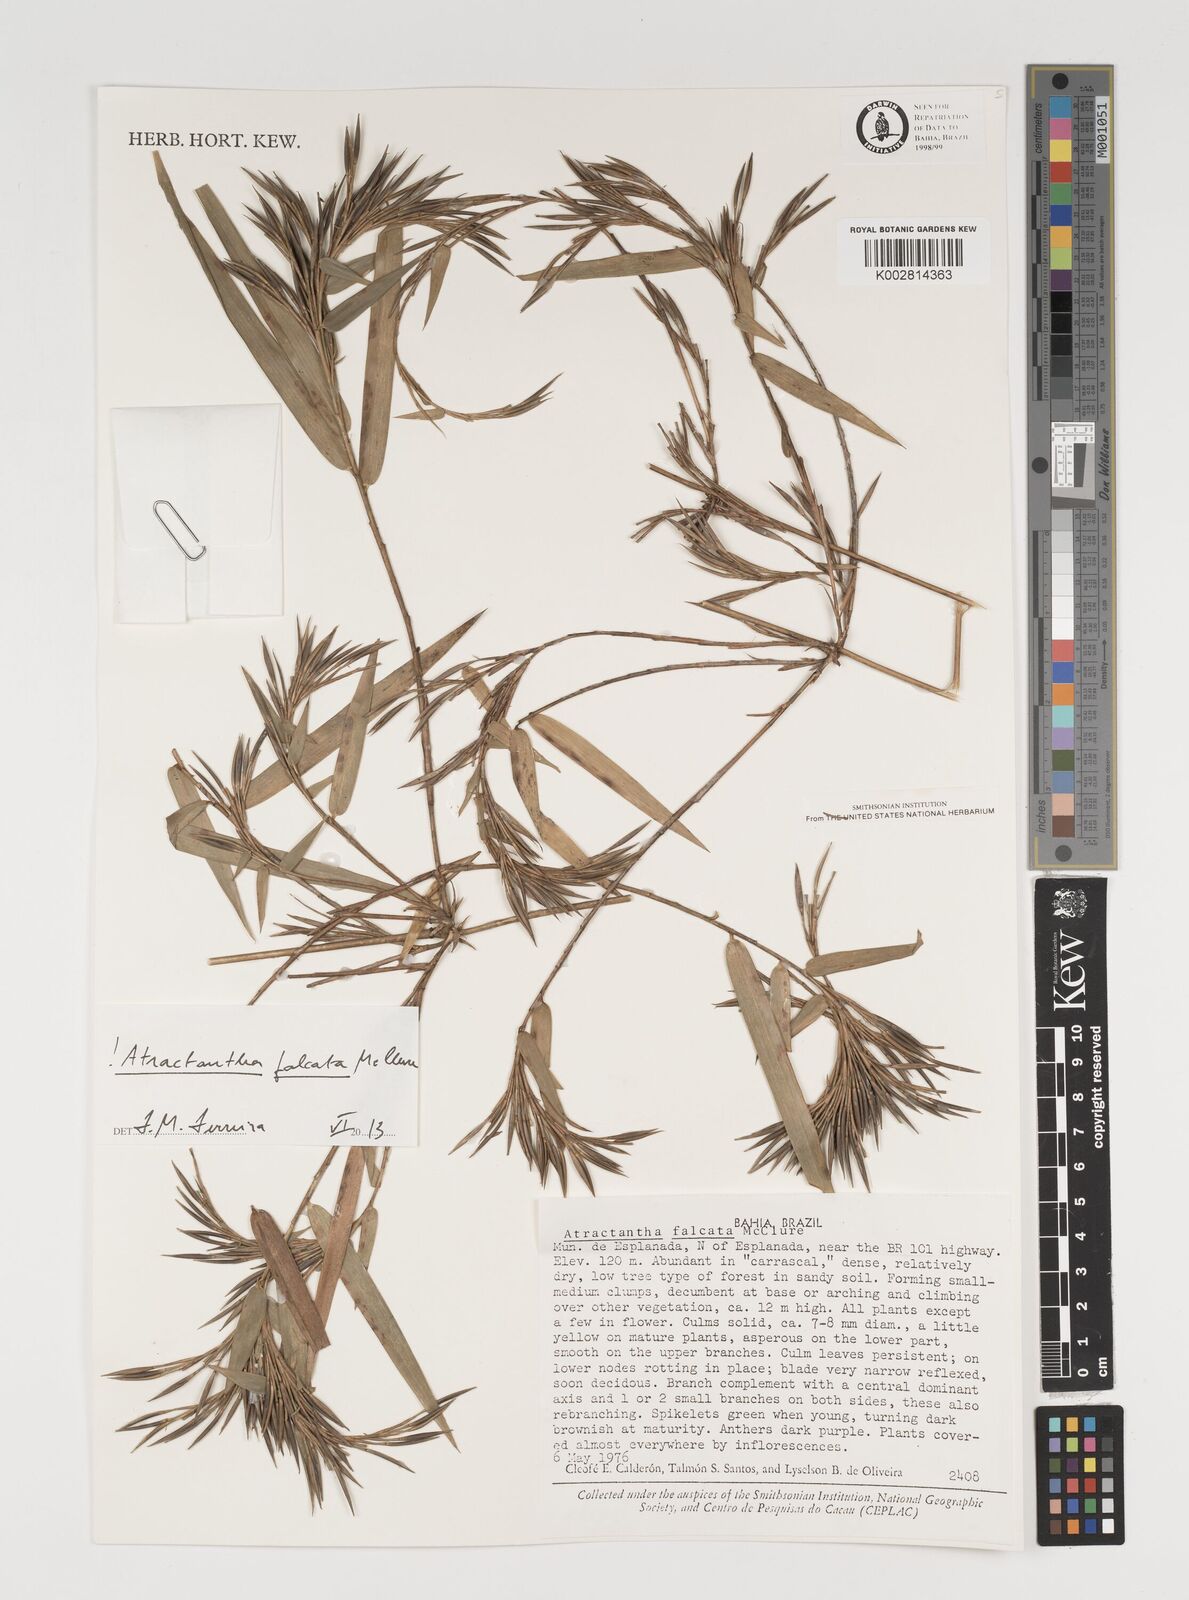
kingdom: Plantae
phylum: Tracheophyta
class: Liliopsida
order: Poales
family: Poaceae
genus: Atractantha
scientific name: Atractantha falcata
